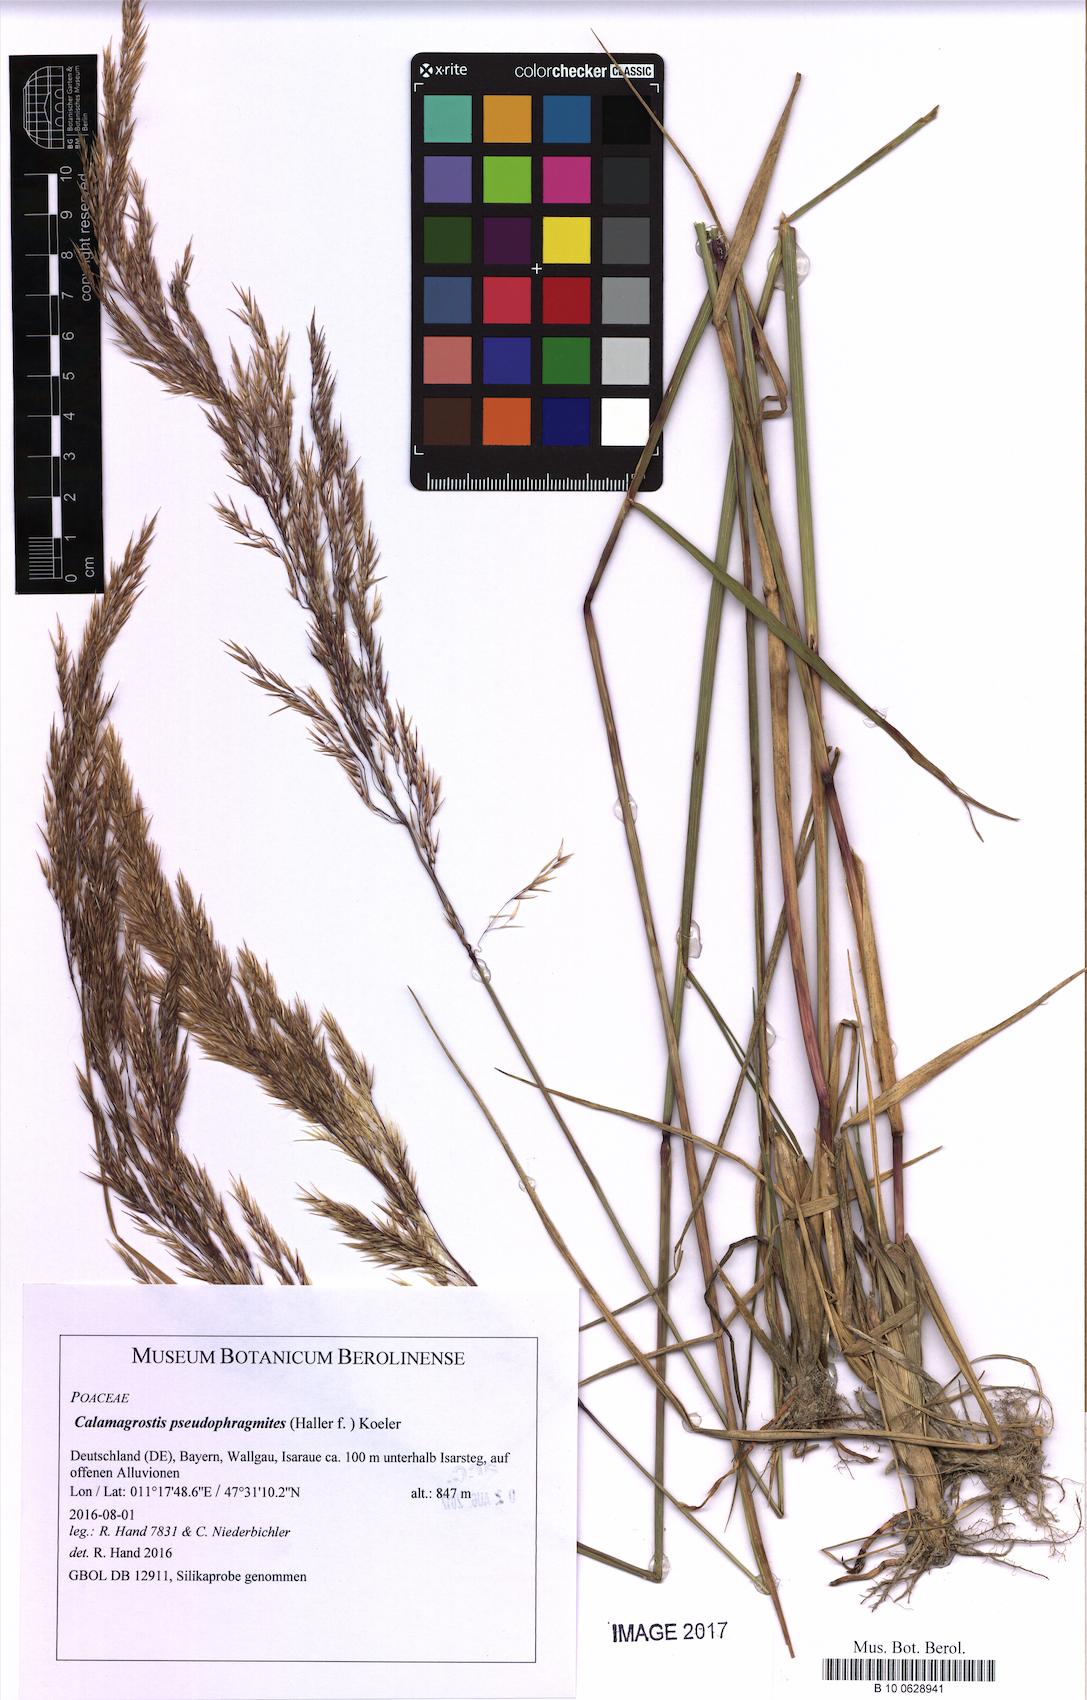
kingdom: Plantae
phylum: Tracheophyta
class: Liliopsida
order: Poales
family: Poaceae
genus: Calamagrostis
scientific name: Calamagrostis pseudophragmites
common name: Coastal small-reed
